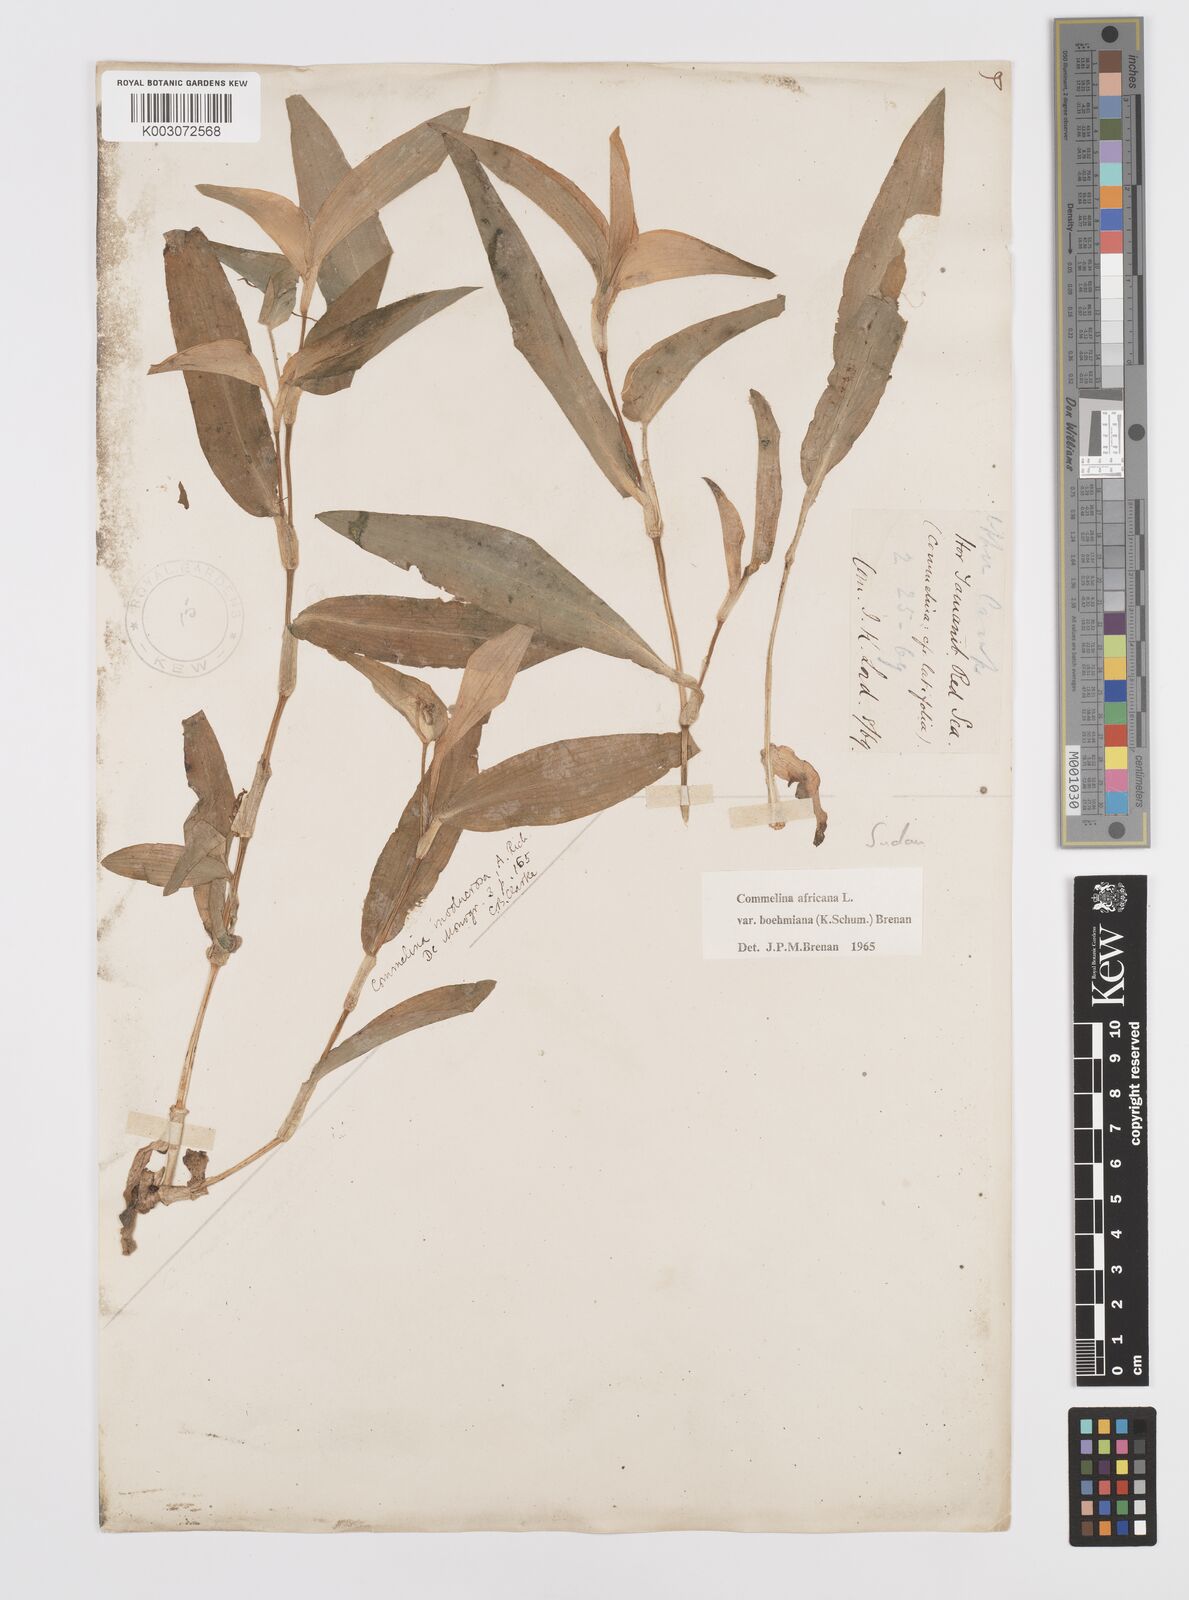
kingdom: Plantae
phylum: Tracheophyta
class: Liliopsida
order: Commelinales
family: Commelinaceae
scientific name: Commelinaceae
